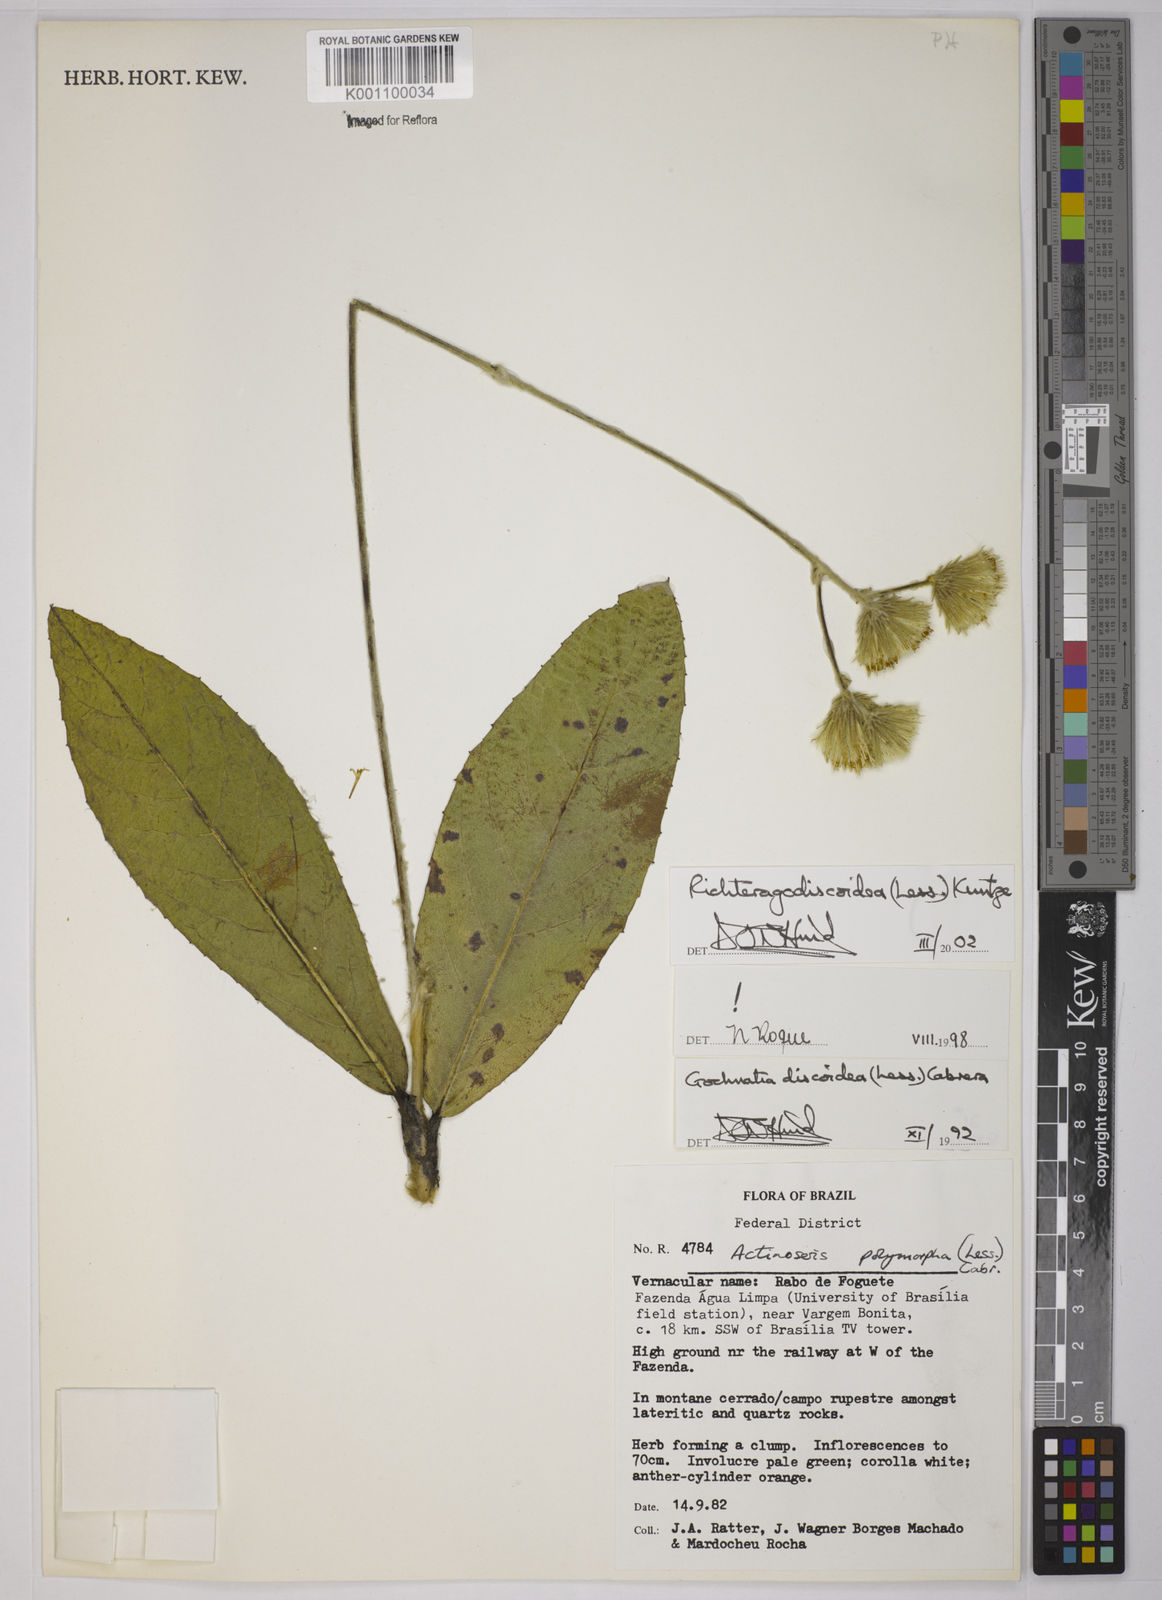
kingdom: Plantae
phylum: Tracheophyta
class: Magnoliopsida
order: Asterales
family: Asteraceae
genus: Richterago
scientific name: Richterago discoidea
